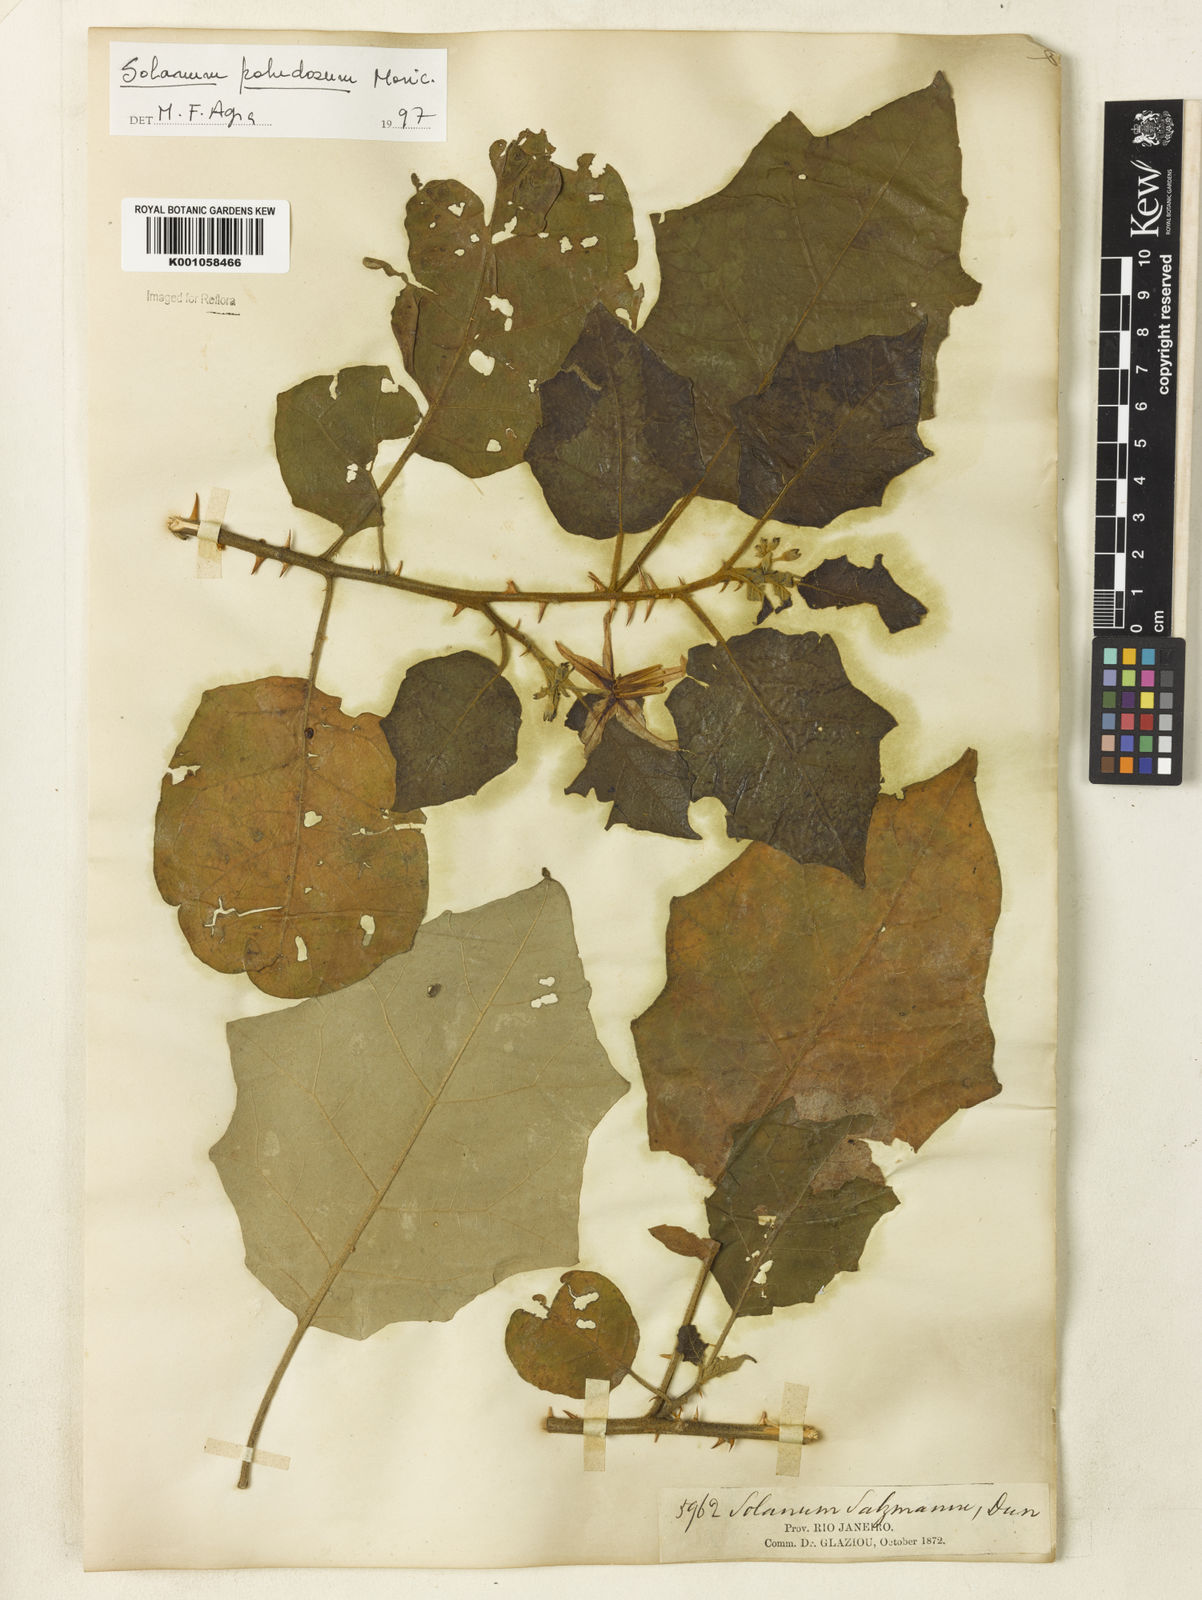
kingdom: Plantae
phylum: Tracheophyta
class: Magnoliopsida
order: Solanales
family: Solanaceae
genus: Solanum
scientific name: Solanum paludosum
